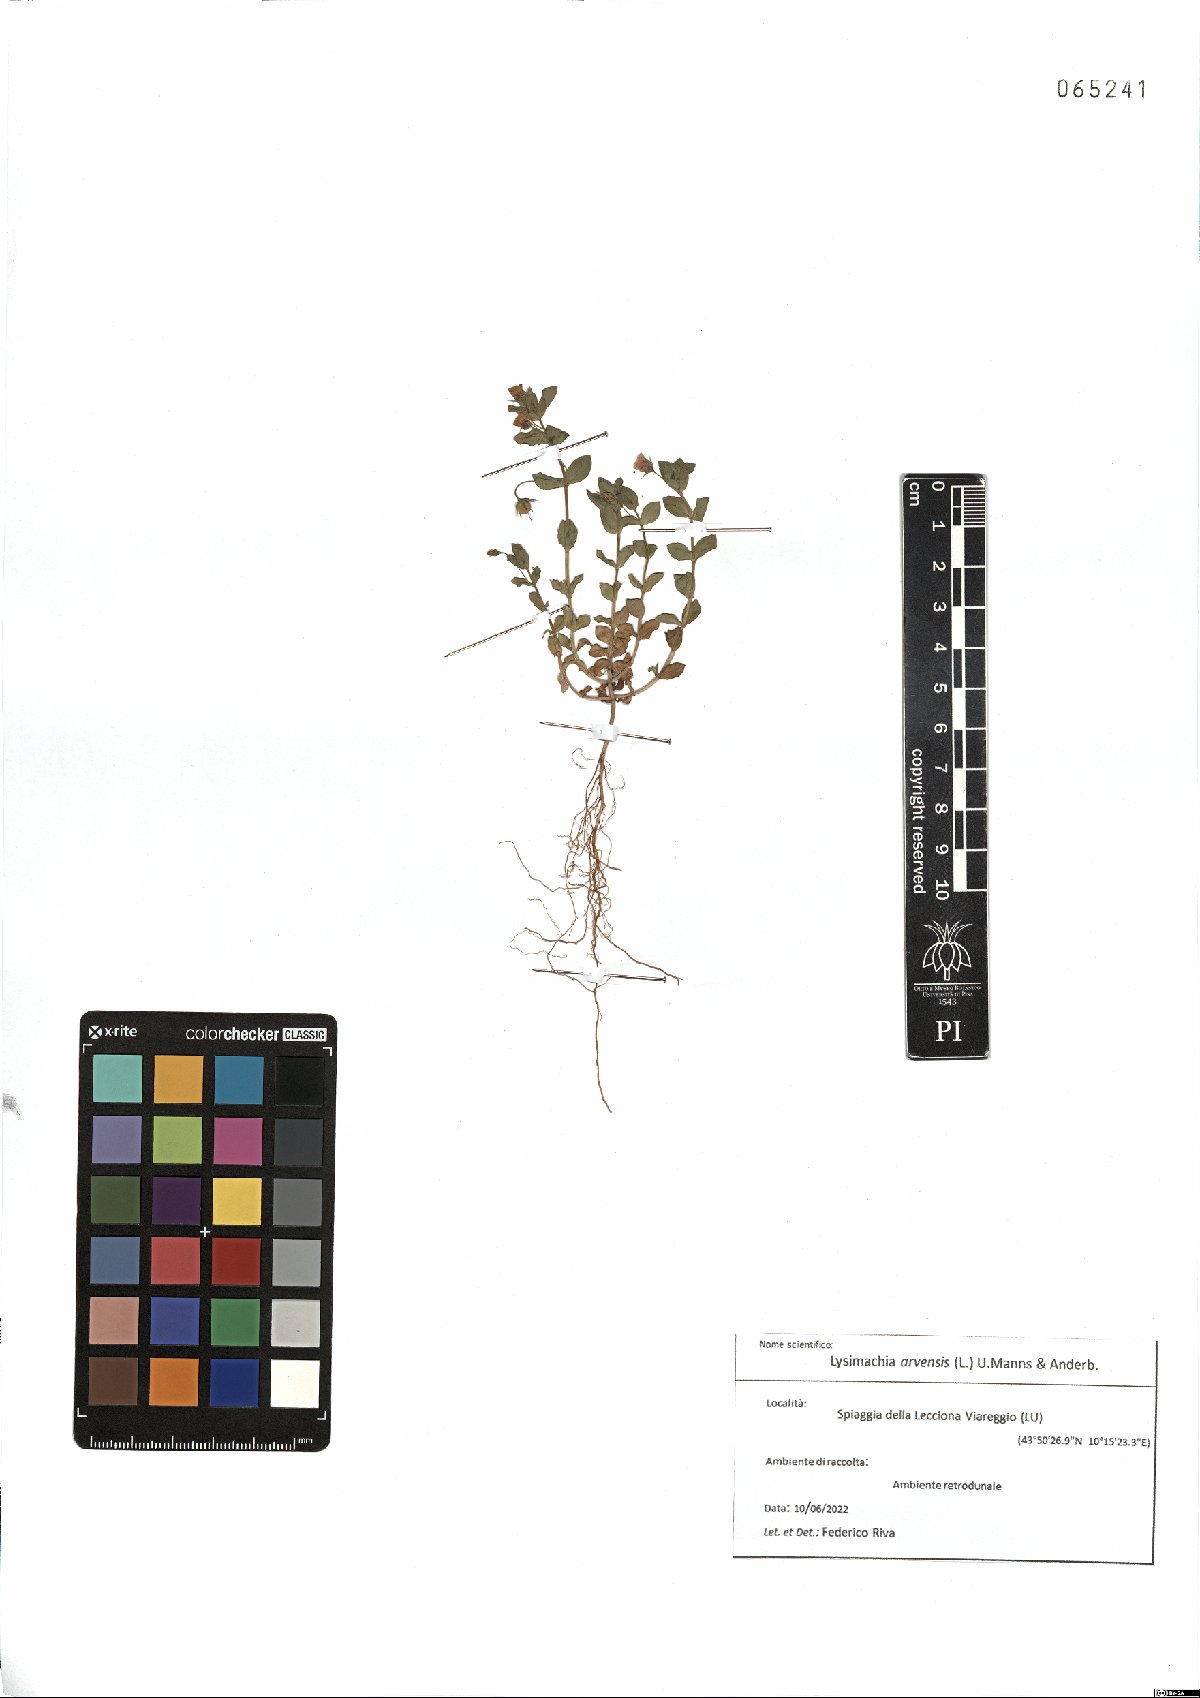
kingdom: Plantae
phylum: Tracheophyta
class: Magnoliopsida
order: Ericales
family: Primulaceae
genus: Lysimachia
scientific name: Lysimachia arvensis
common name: Scarlet pimpernel
